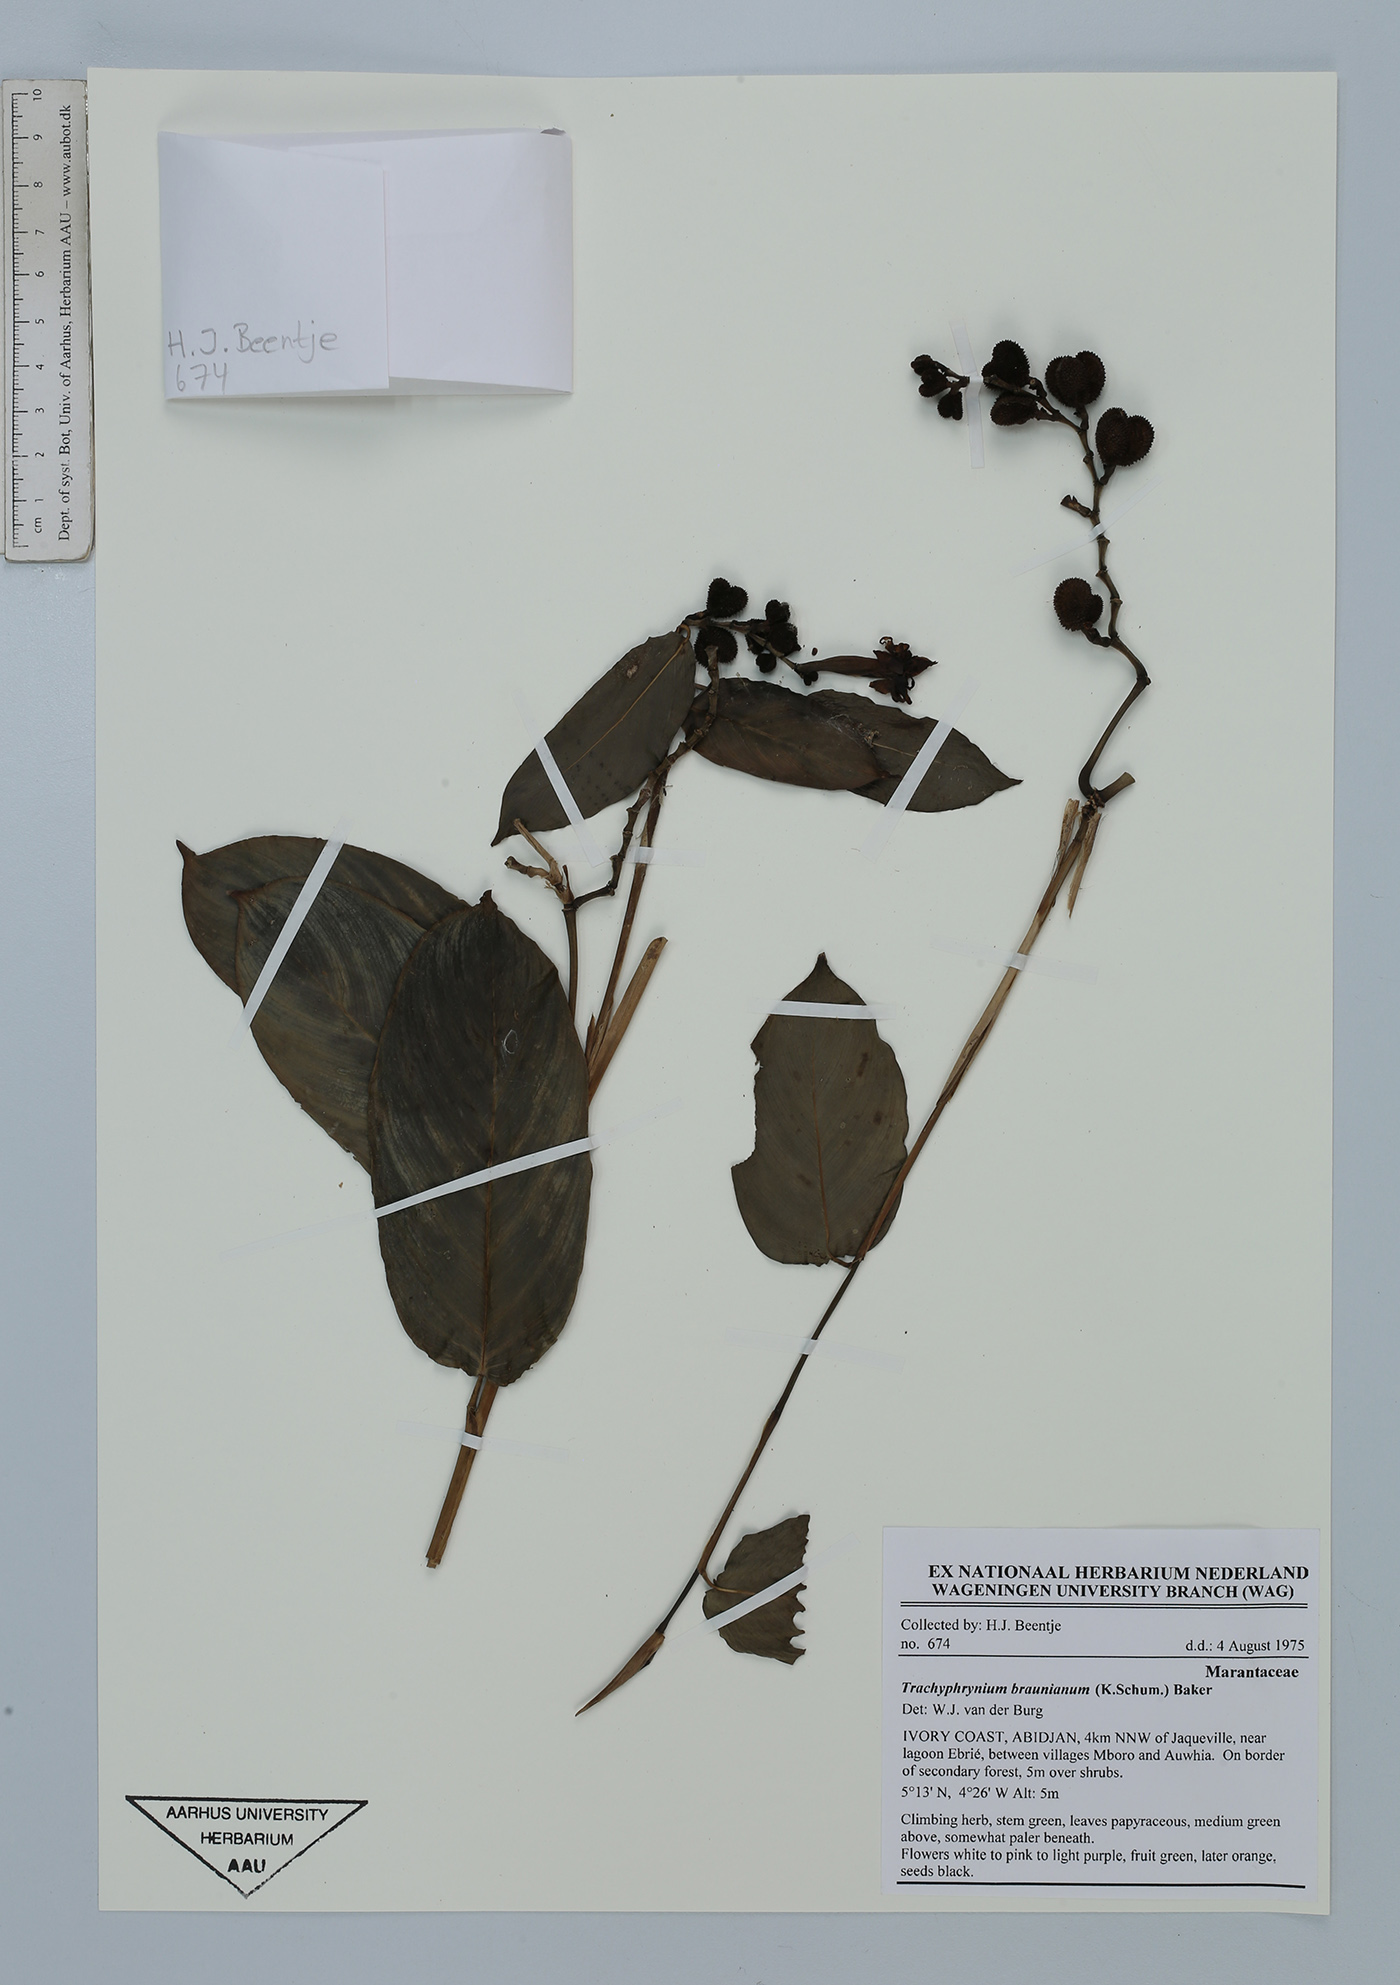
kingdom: Plantae
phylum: Tracheophyta
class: Liliopsida
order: Zingiberales
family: Marantaceae
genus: Trachyphrynium
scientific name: Trachyphrynium braunianum
